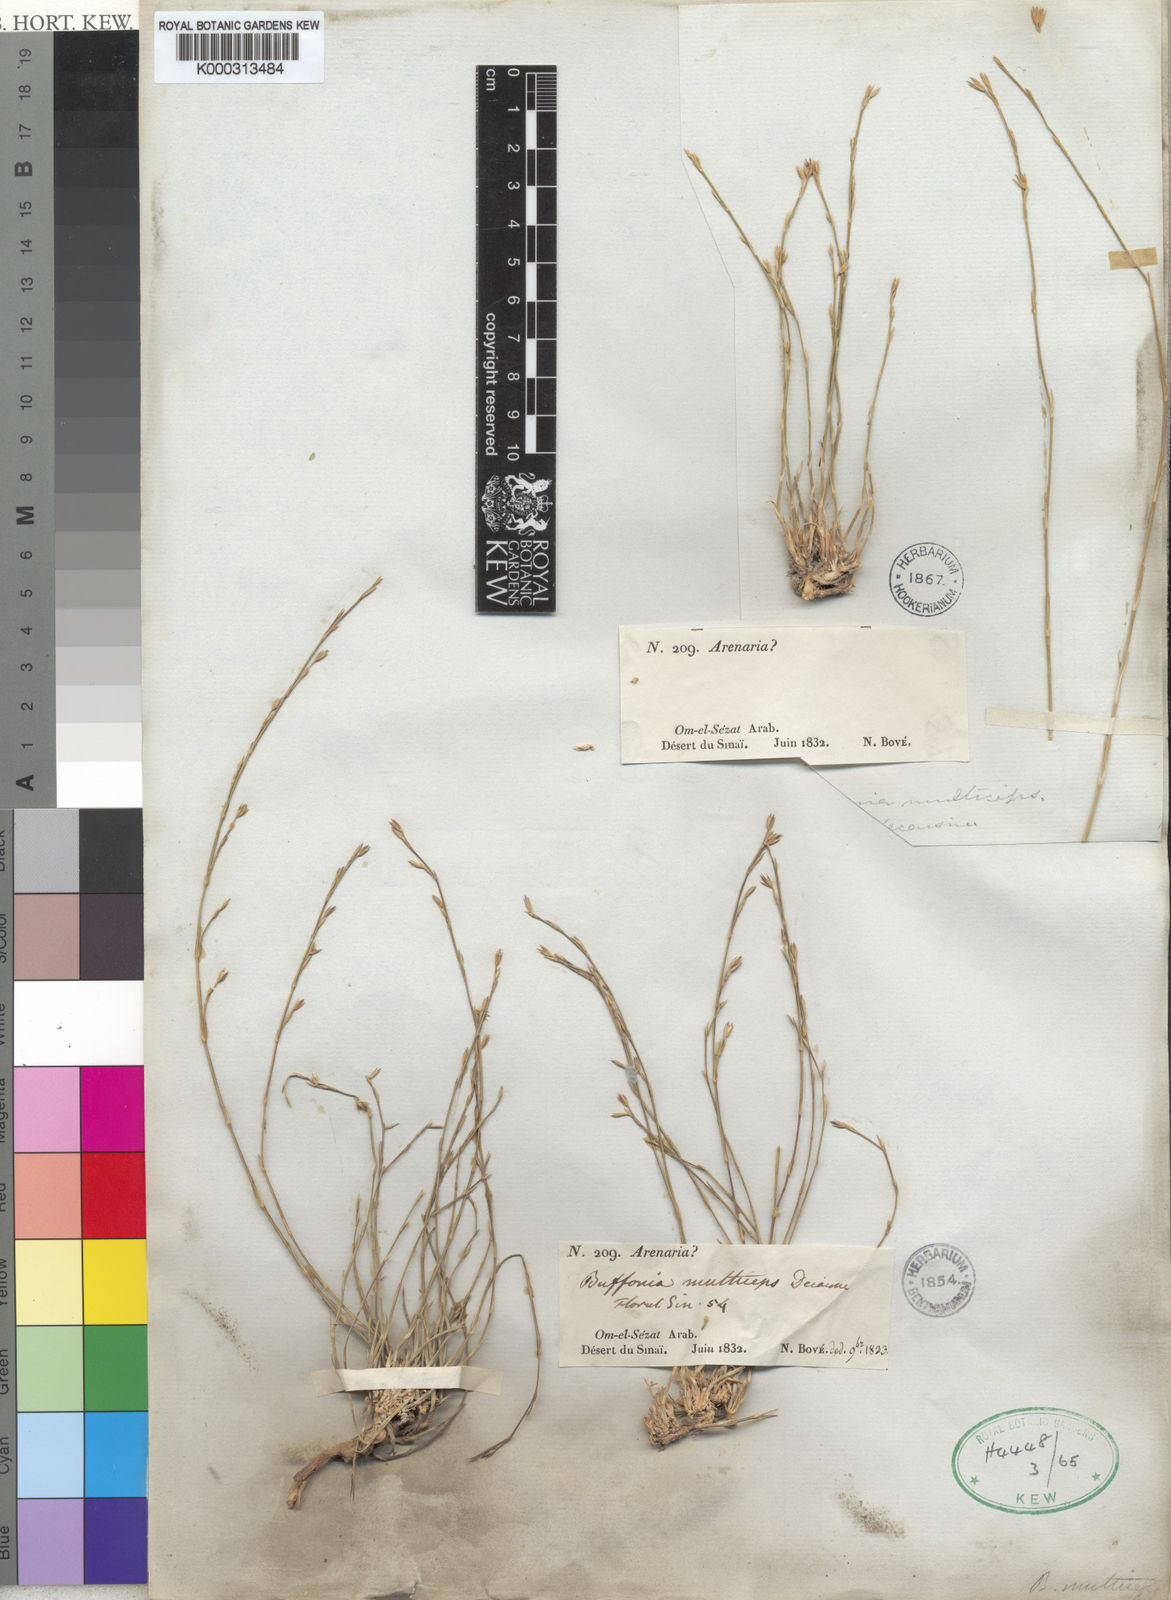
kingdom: Plantae
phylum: Tracheophyta
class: Magnoliopsida
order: Caryophyllales
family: Caryophyllaceae
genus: Bufonia
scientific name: Bufonia multiceps
